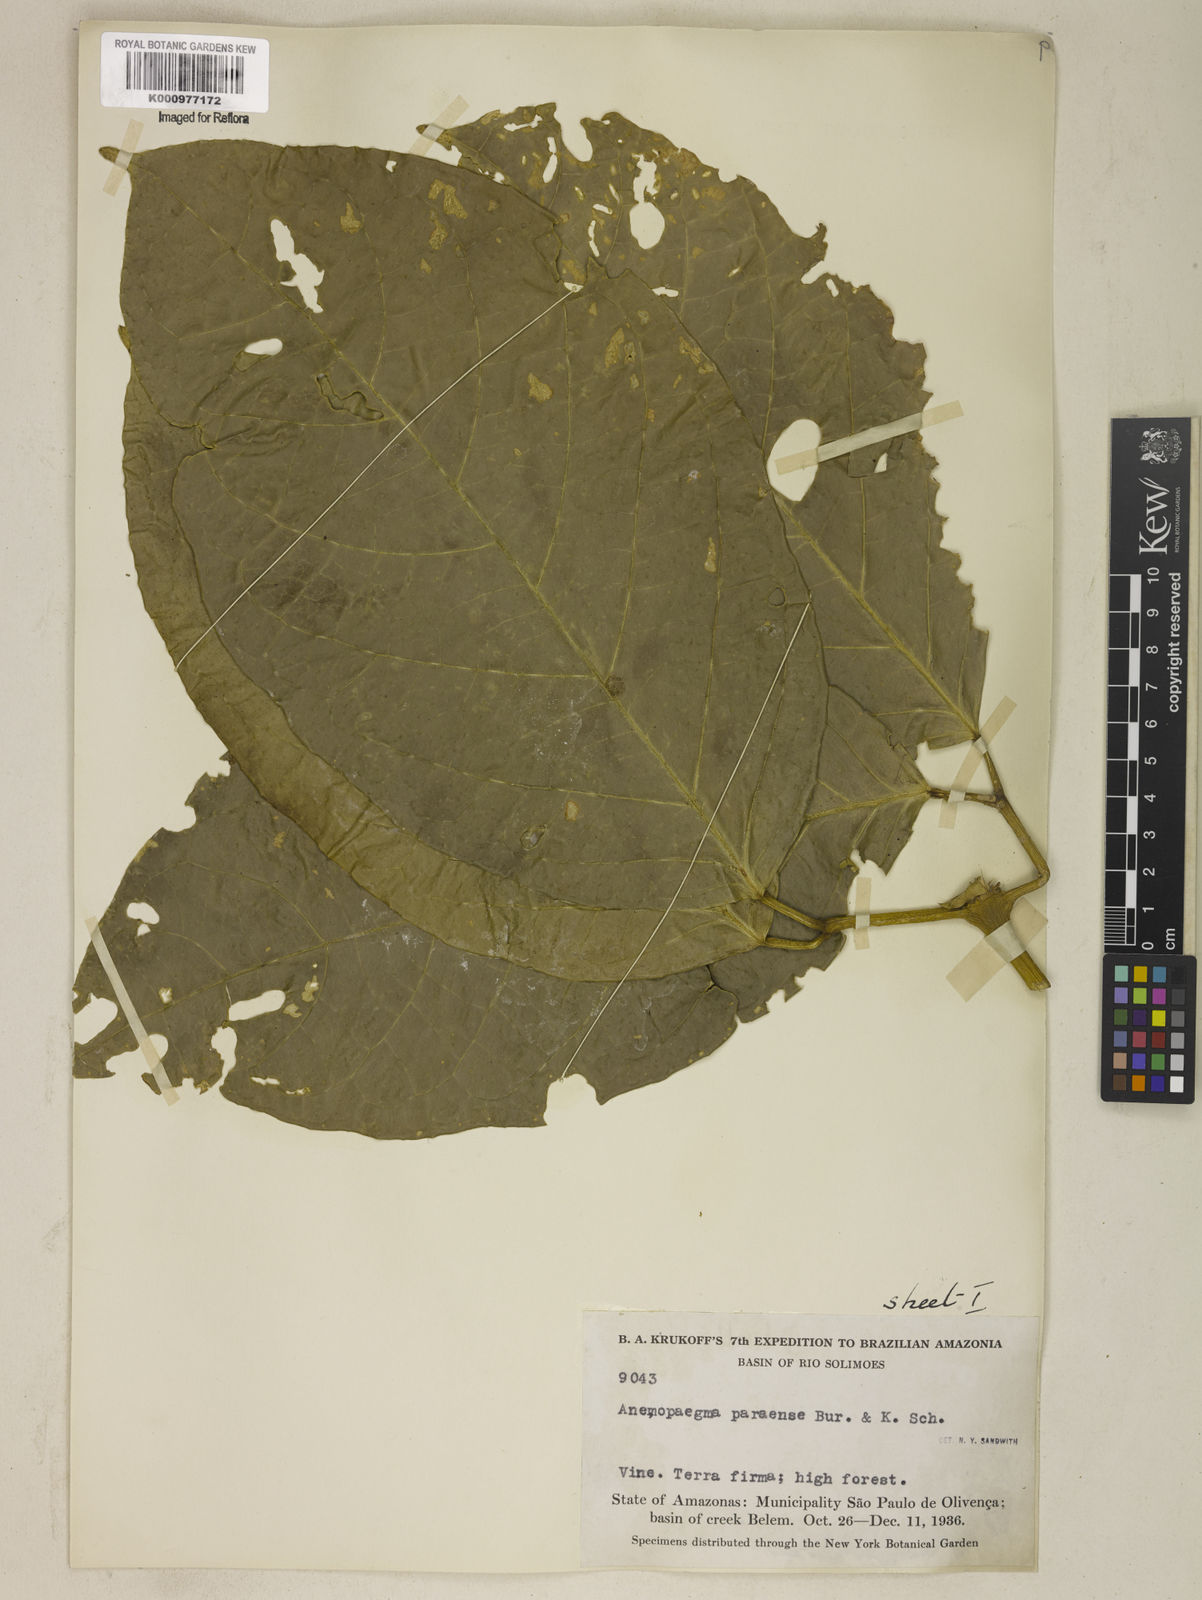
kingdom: Plantae
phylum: Tracheophyta
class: Magnoliopsida
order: Lamiales
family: Bignoniaceae
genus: Anemopaegma
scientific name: Anemopaegma
